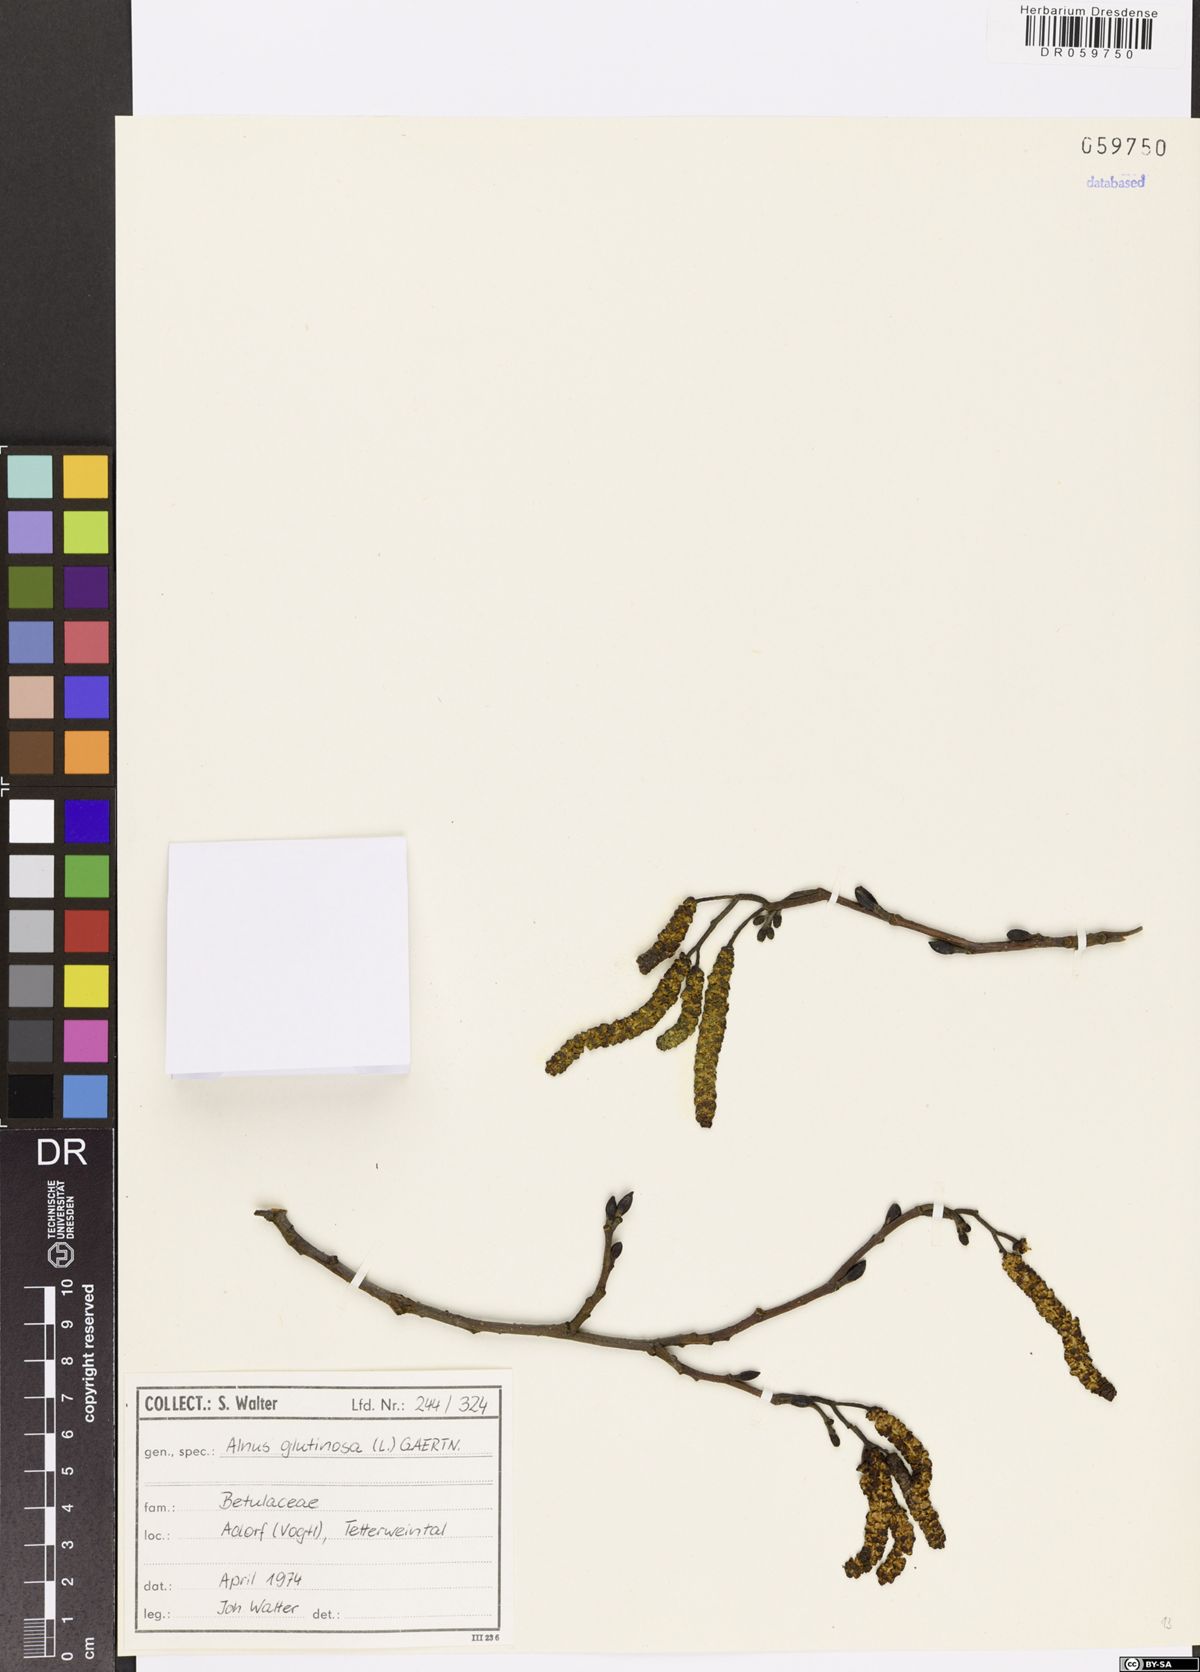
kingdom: Plantae
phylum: Tracheophyta
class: Magnoliopsida
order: Fagales
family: Betulaceae
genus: Alnus
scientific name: Alnus glutinosa
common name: Black alder
